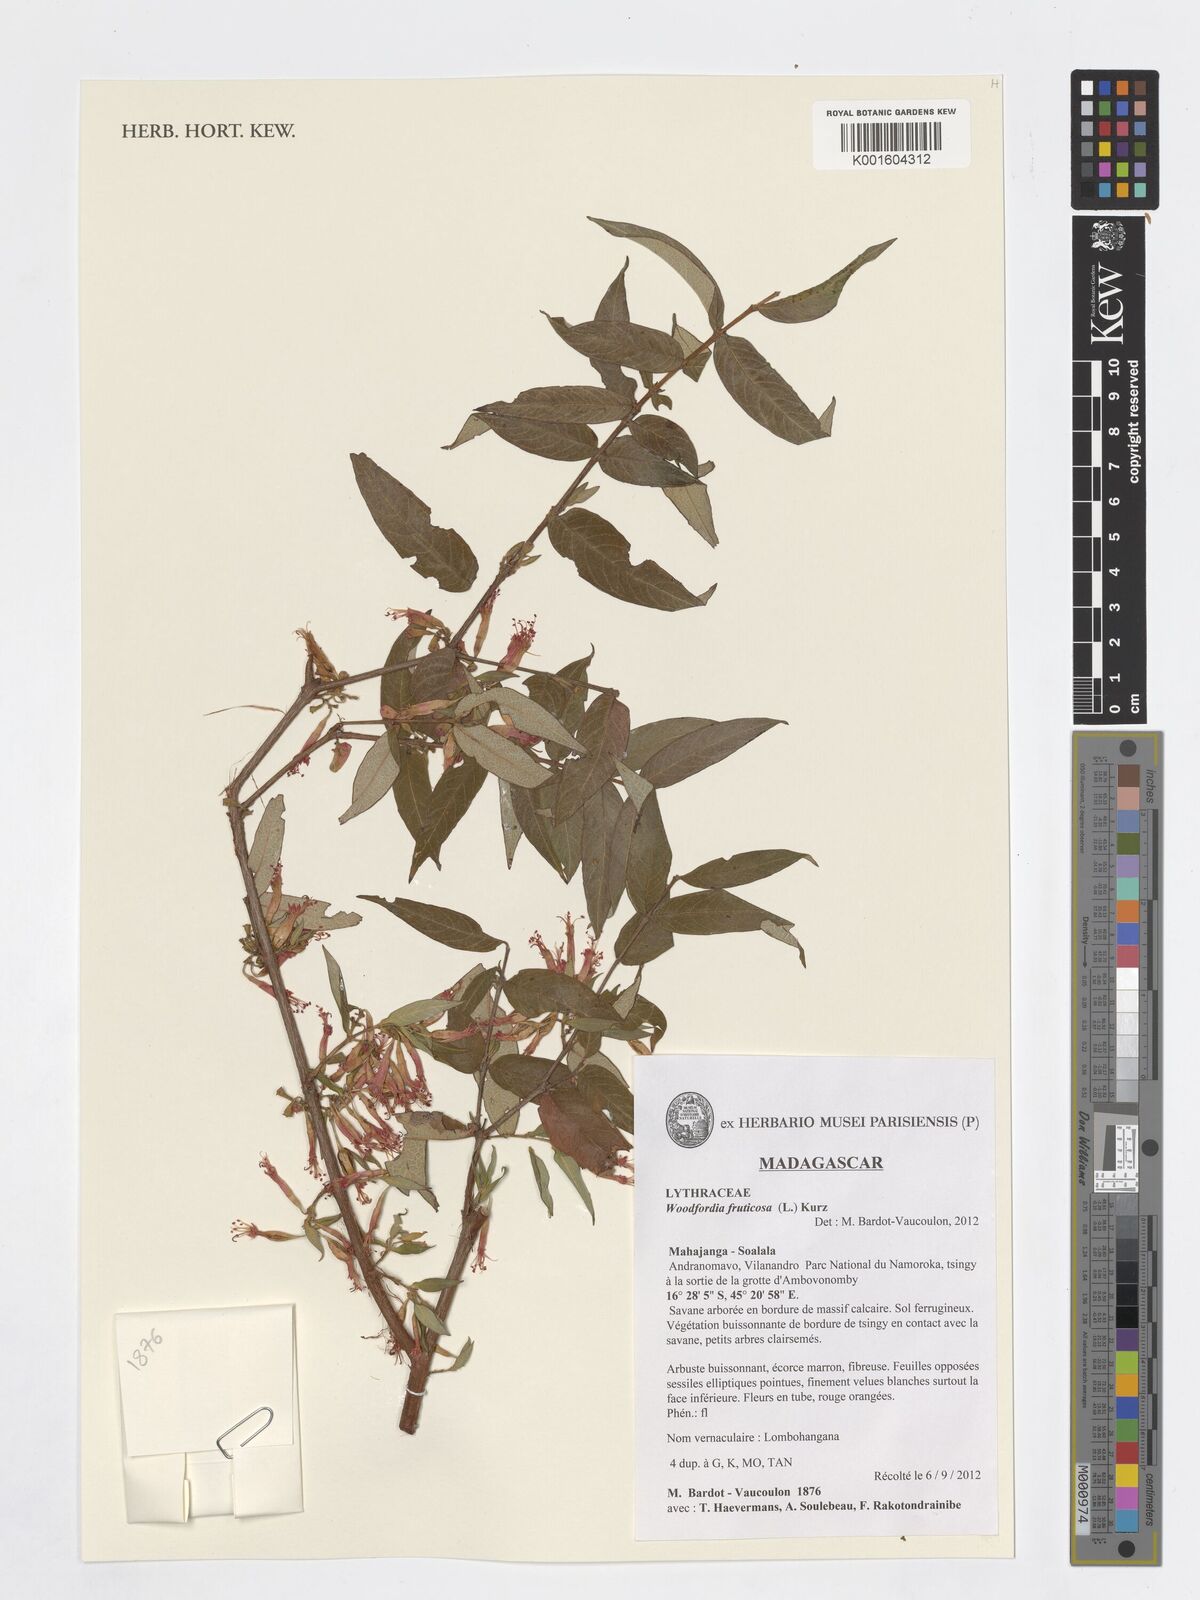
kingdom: Plantae
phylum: Tracheophyta
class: Magnoliopsida
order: Myrtales
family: Lythraceae
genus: Woodfordia
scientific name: Woodfordia fruticosa
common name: Shiranji-tea
